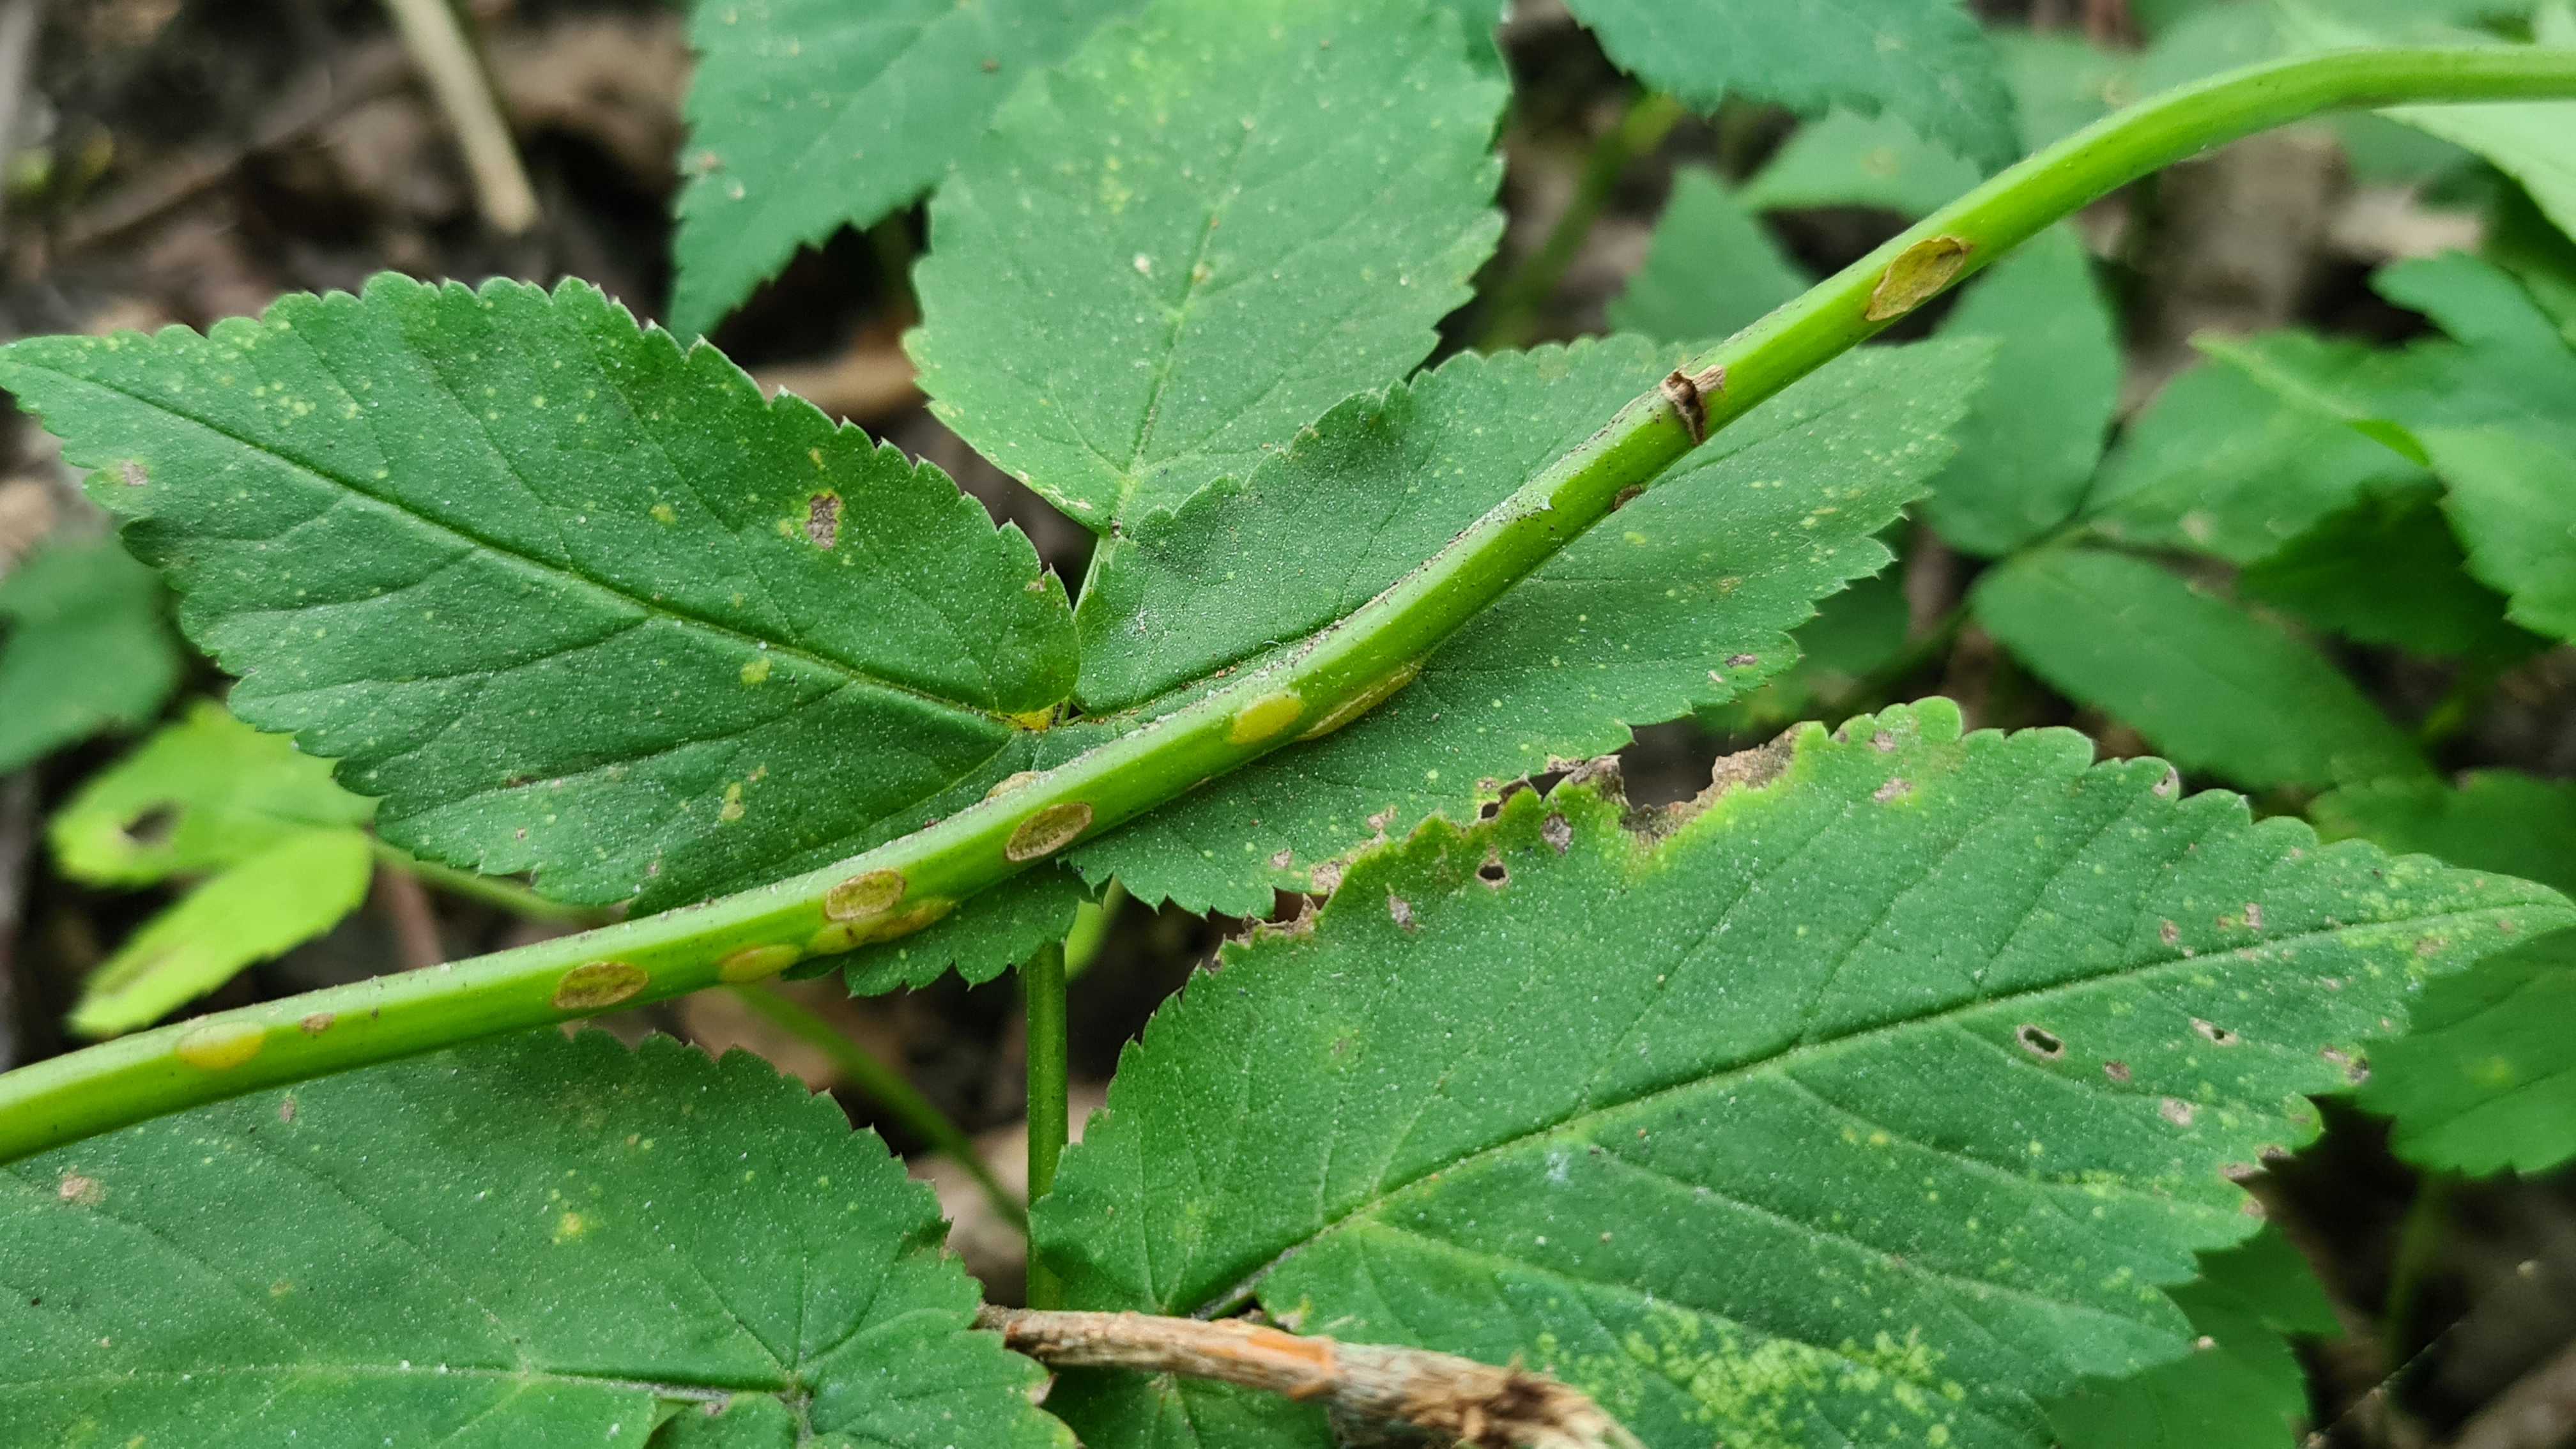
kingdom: Fungi
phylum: Ascomycota
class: Taphrinomycetes
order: Taphrinales
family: Taphrinaceae
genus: Protomyces
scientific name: Protomyces macrosporus
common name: skvalderkål-vablesæk
